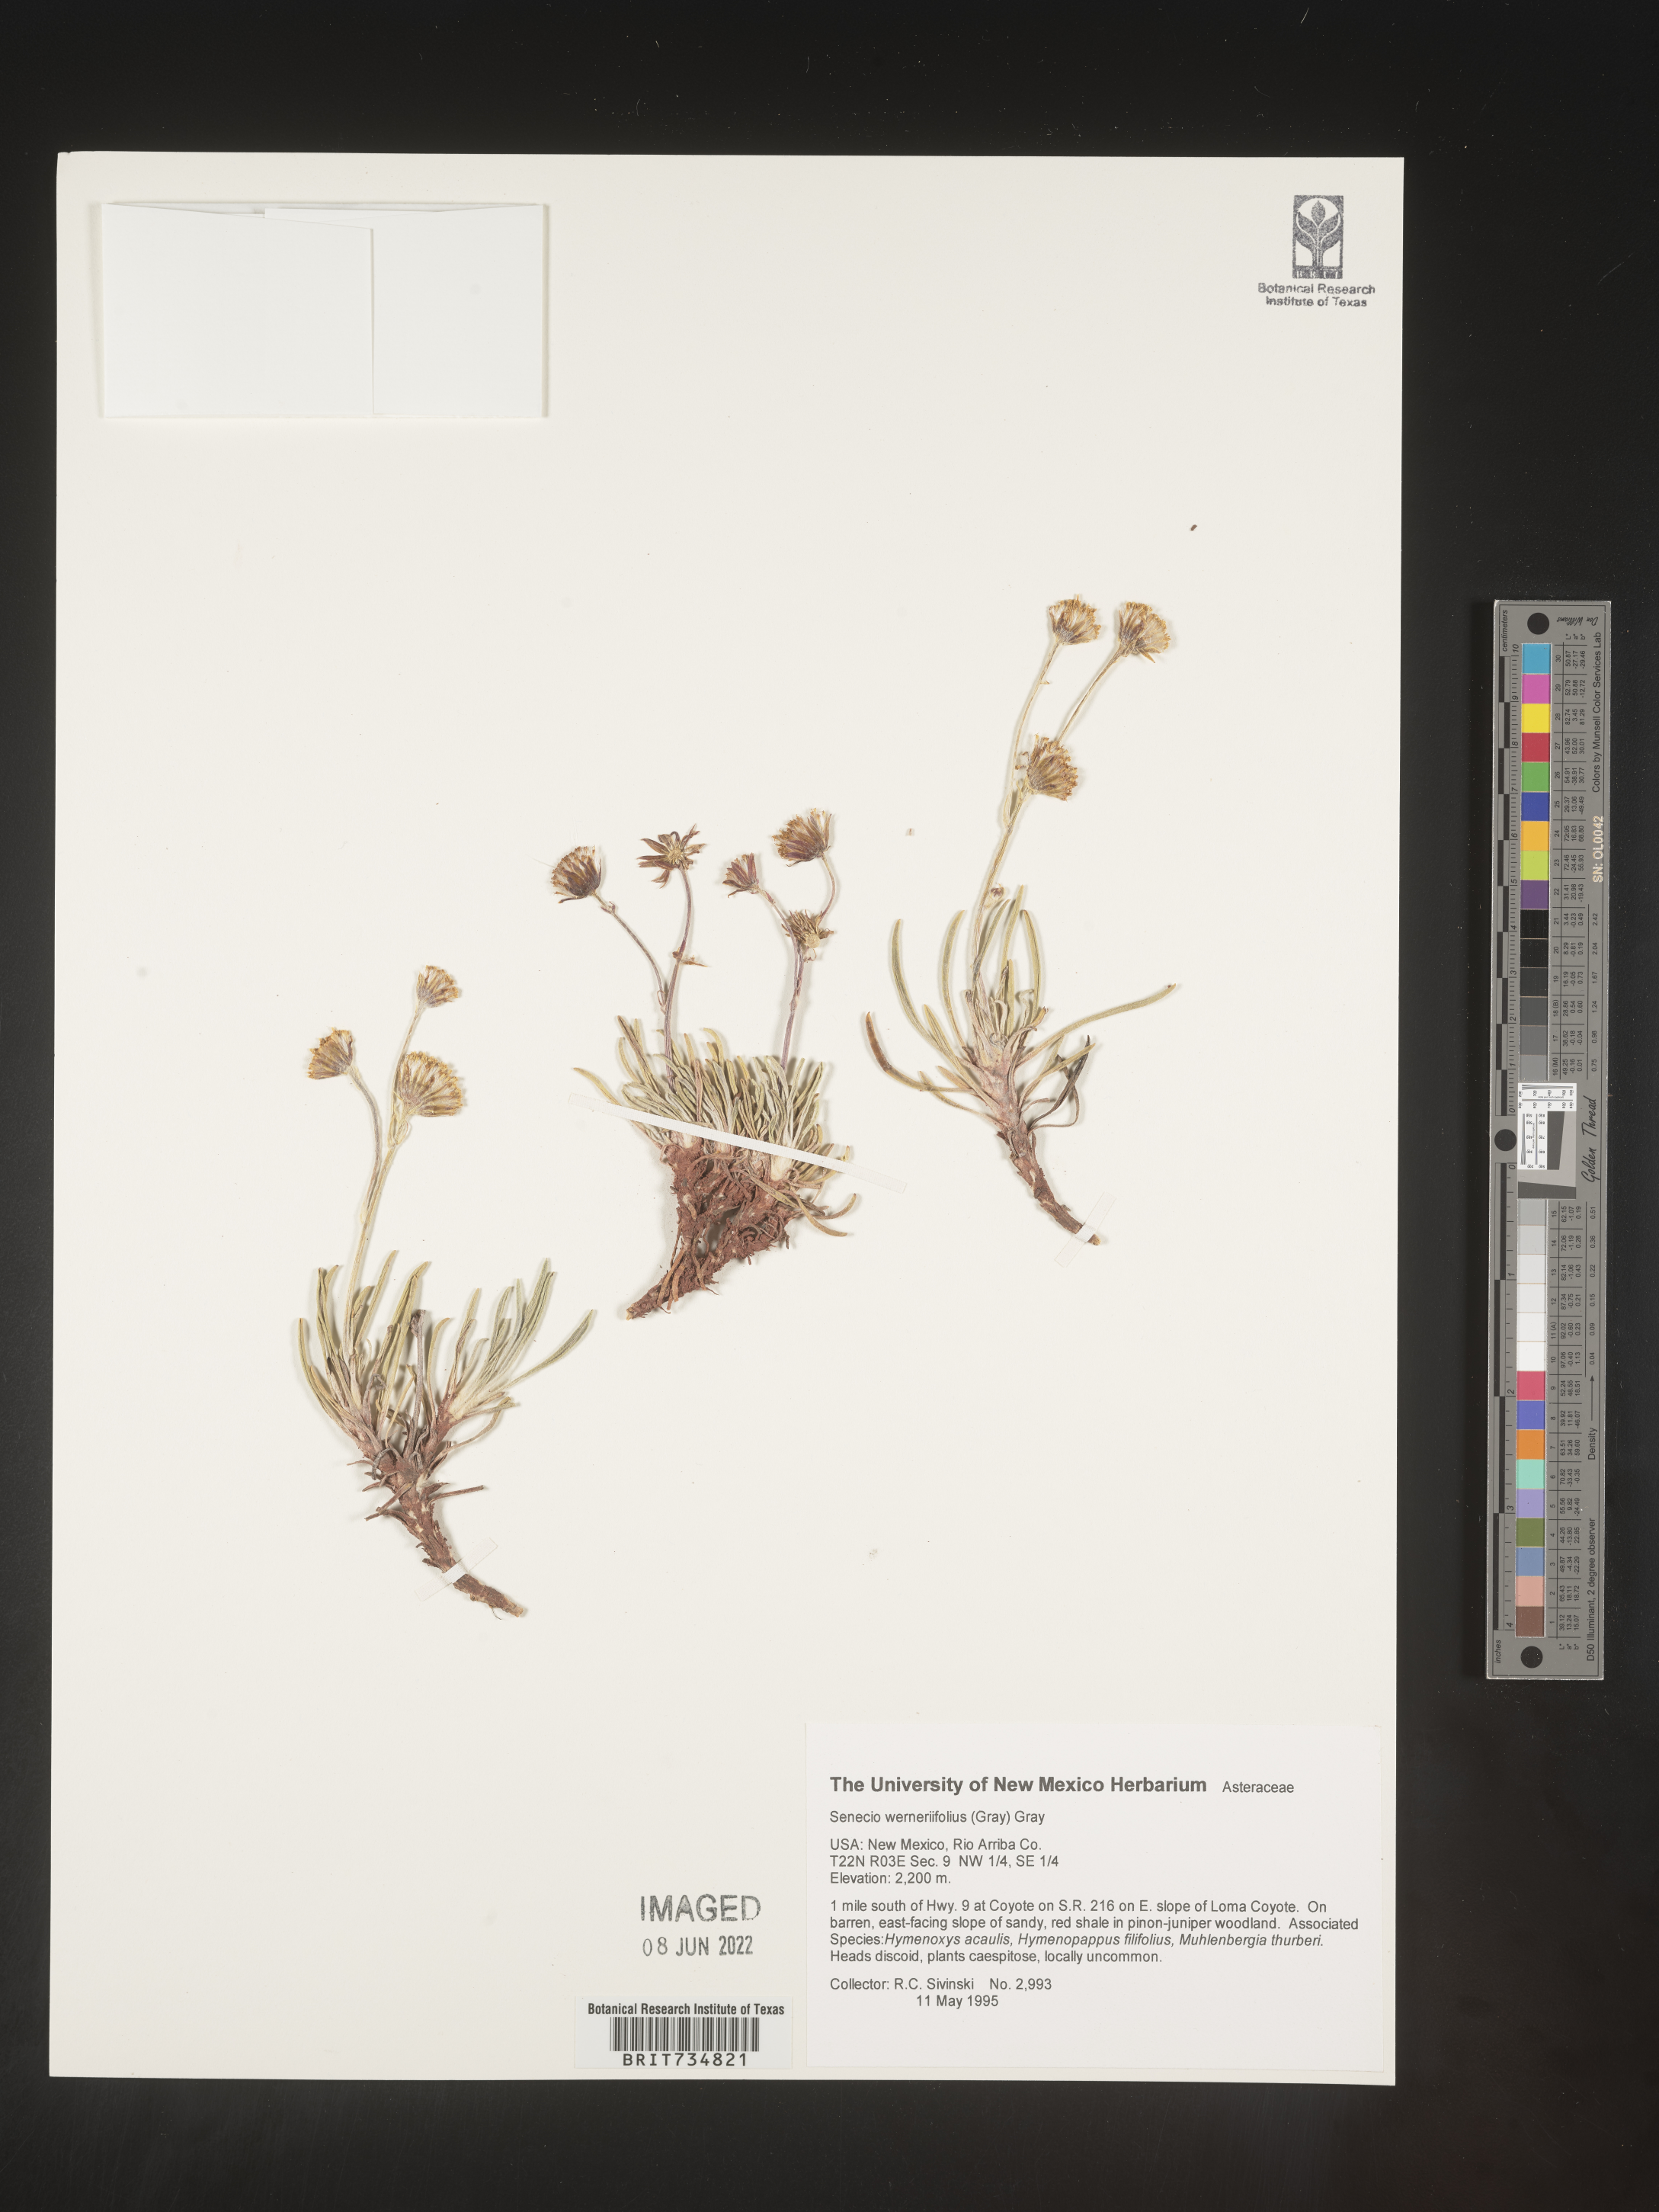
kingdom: Plantae
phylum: Tracheophyta
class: Magnoliopsida
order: Asterales
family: Asteraceae
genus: Packera
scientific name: Packera werneriifolia
